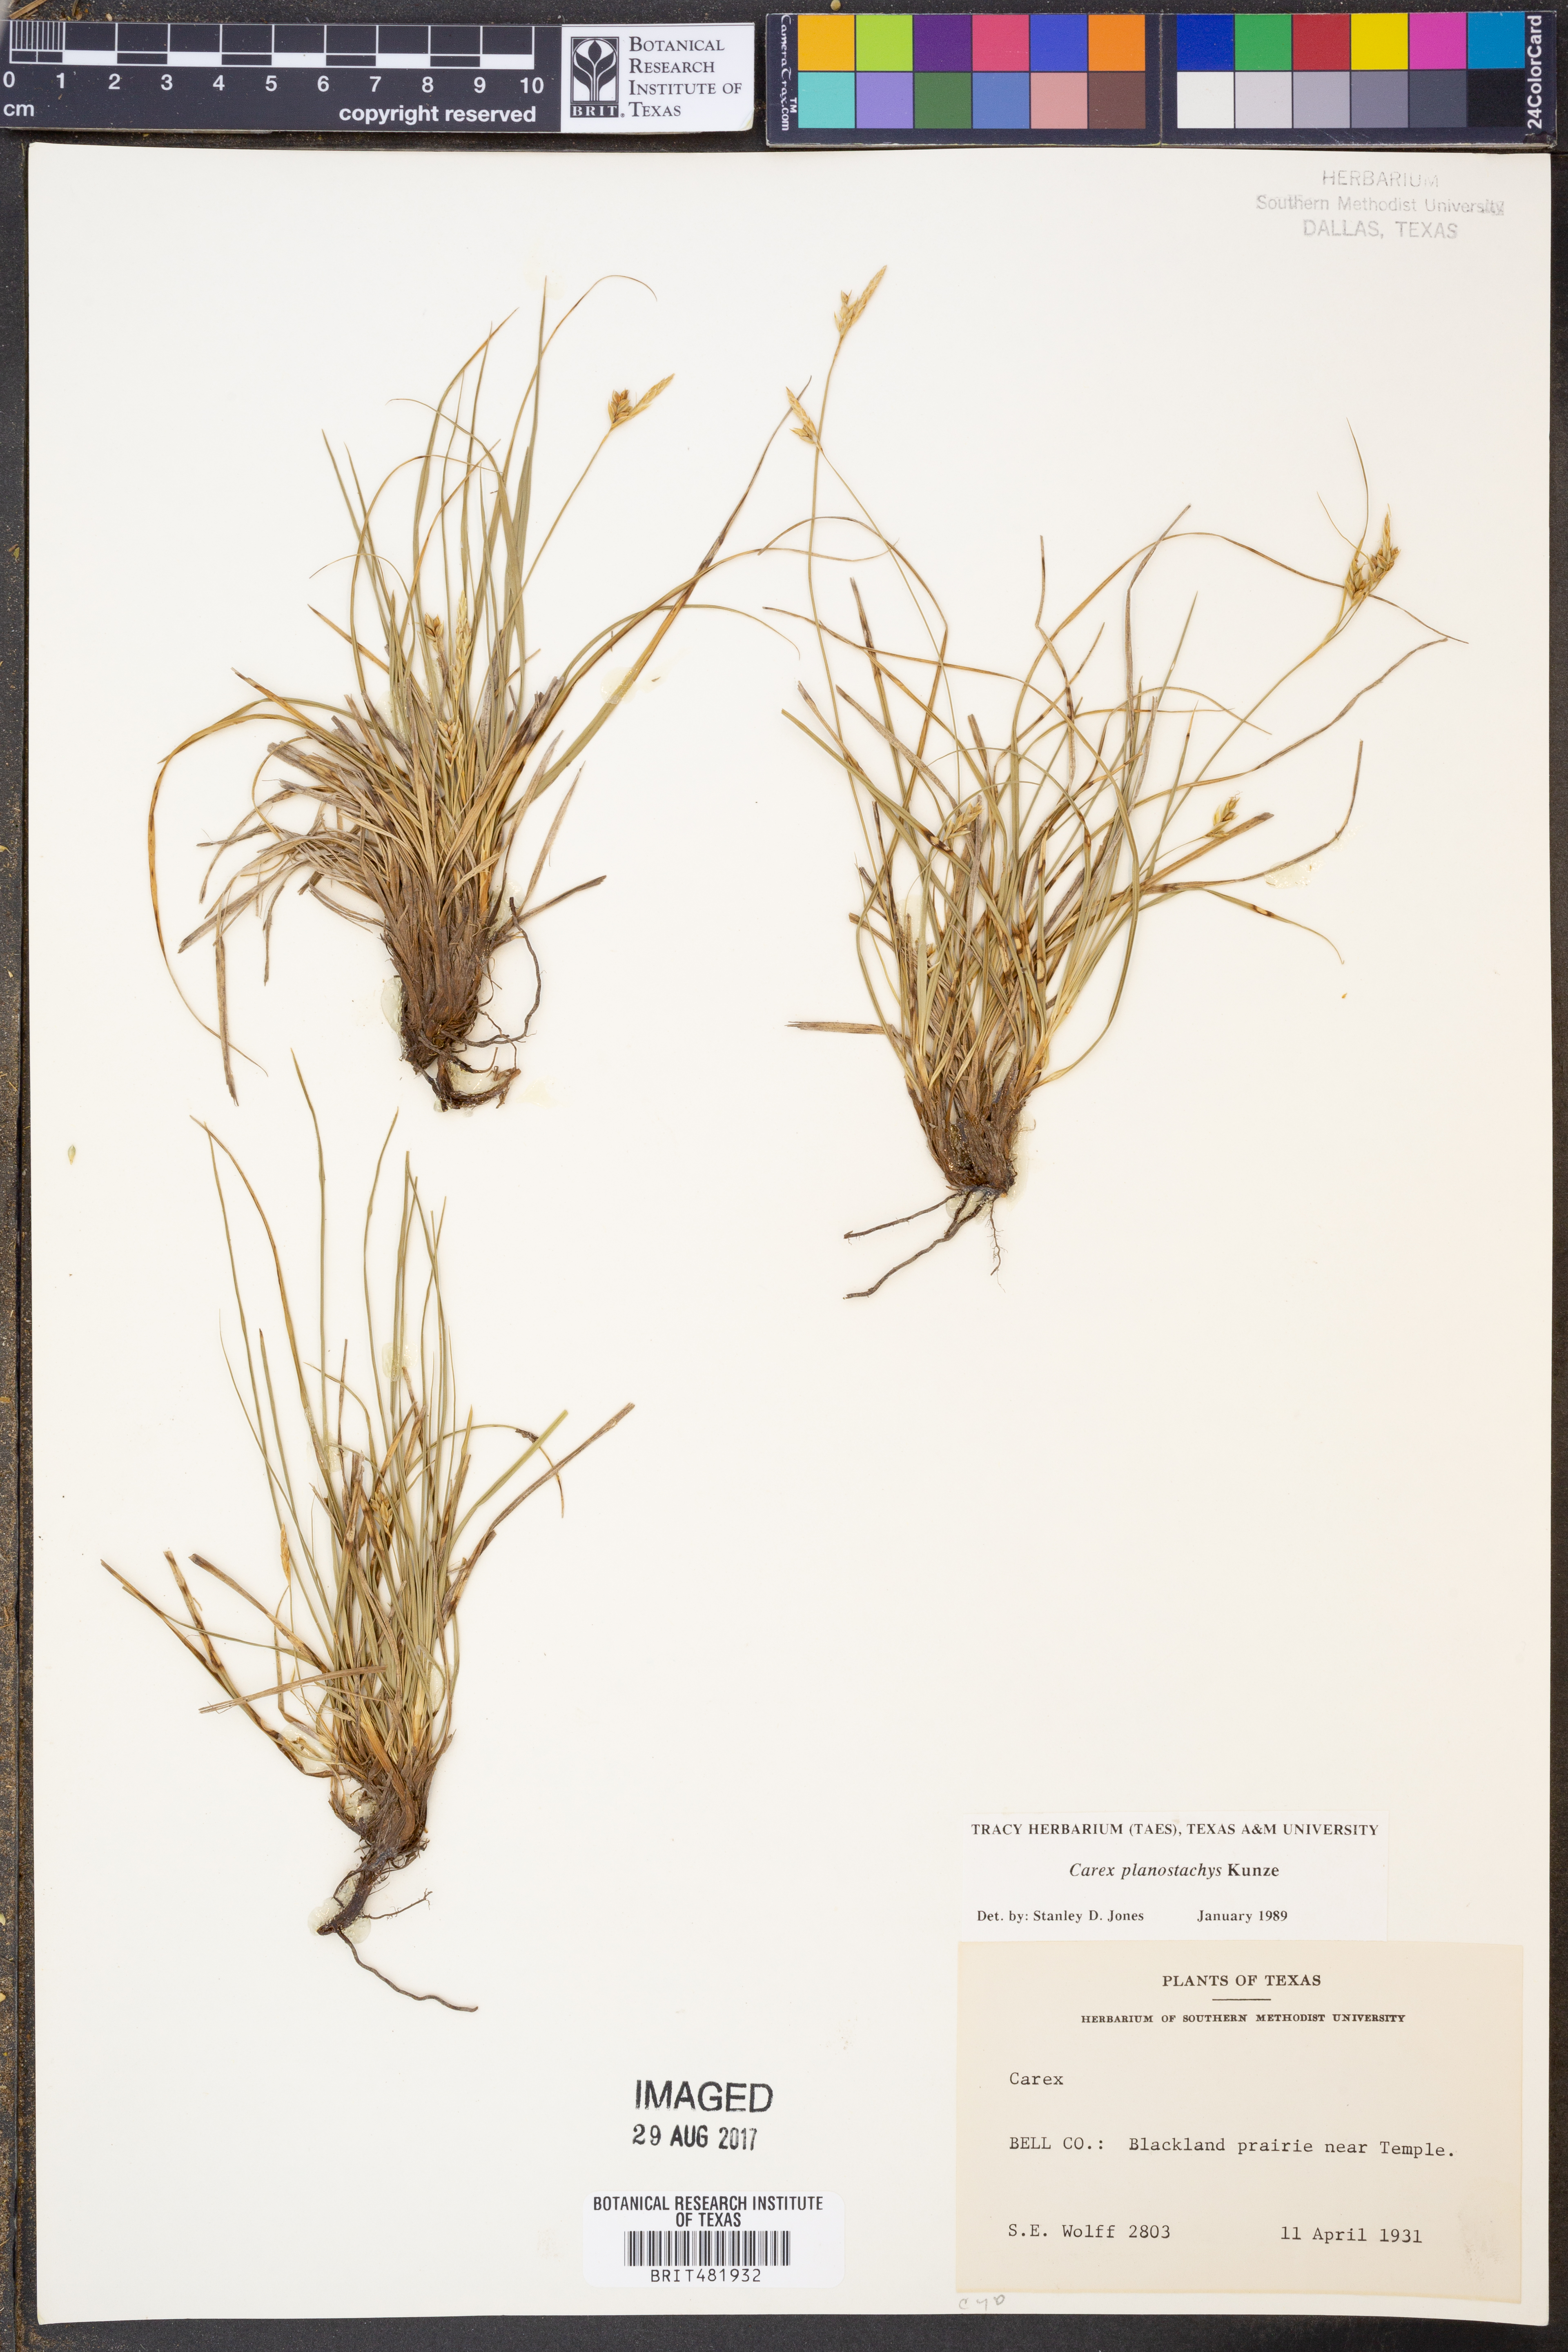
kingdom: Plantae
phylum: Tracheophyta
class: Liliopsida
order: Poales
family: Cyperaceae
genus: Carex
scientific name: Carex planostachys
